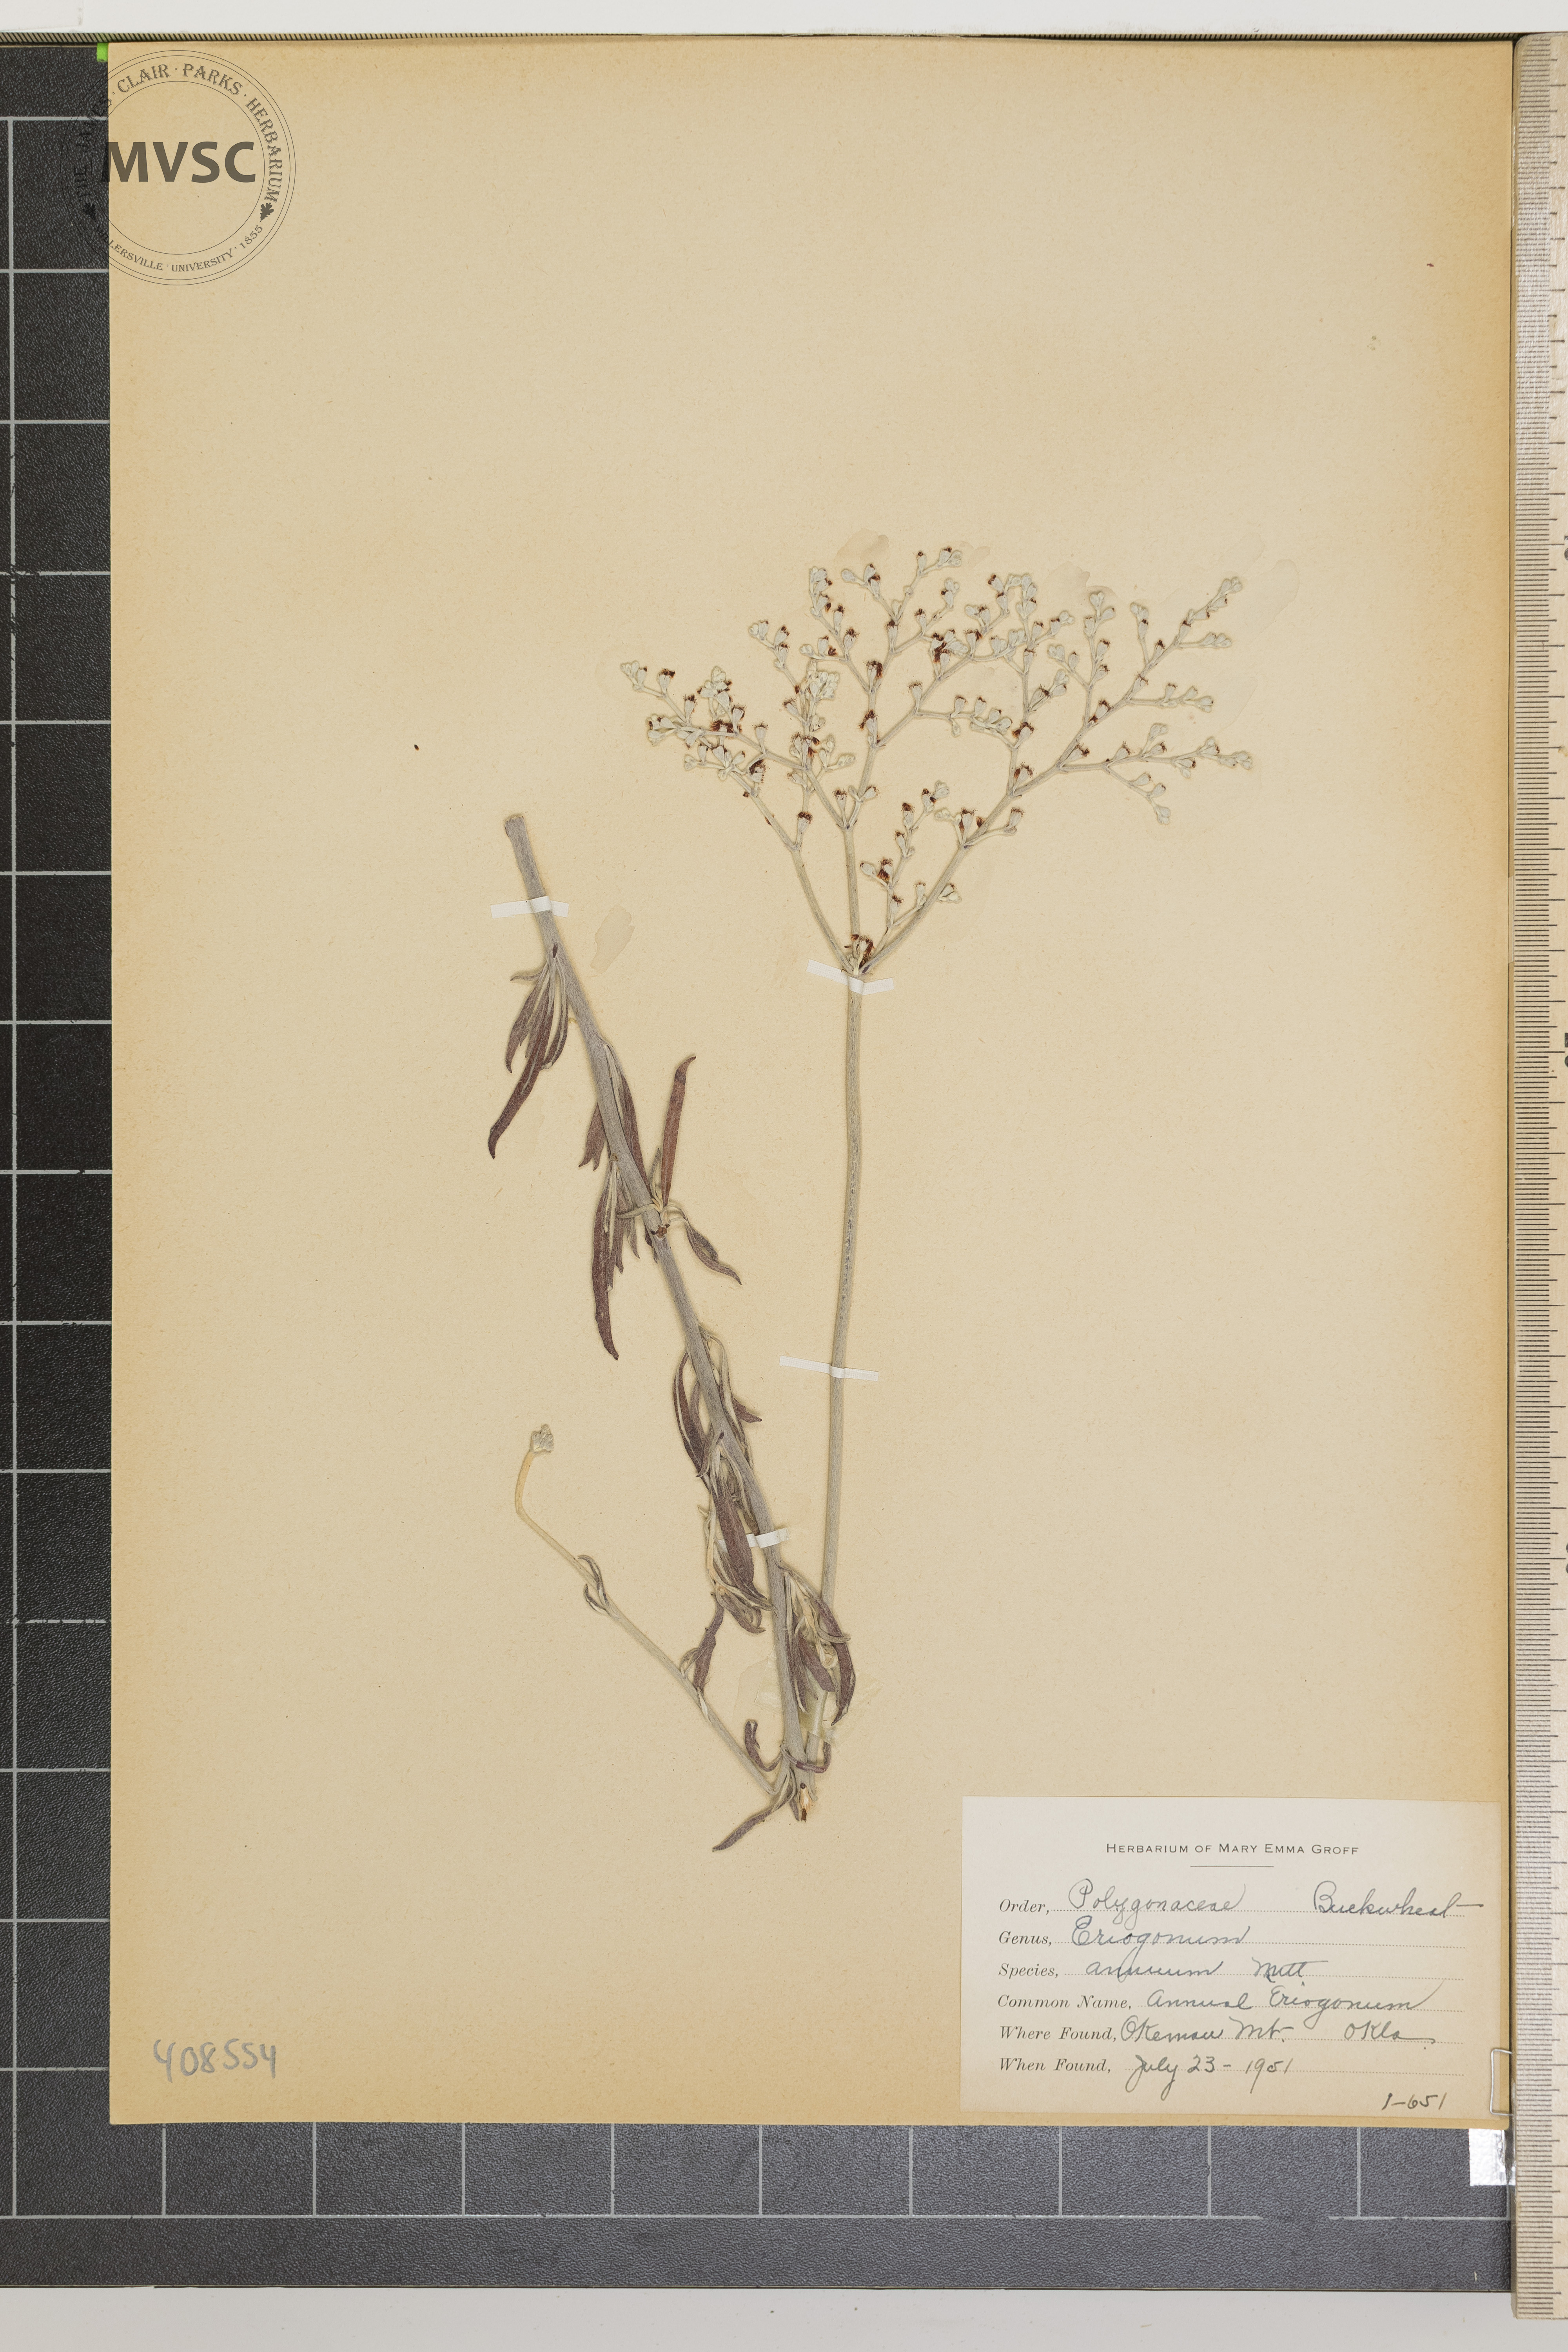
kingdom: Plantae
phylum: Tracheophyta
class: Magnoliopsida
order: Caryophyllales
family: Polygonaceae
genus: Eriogonum
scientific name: Eriogonum annuum
